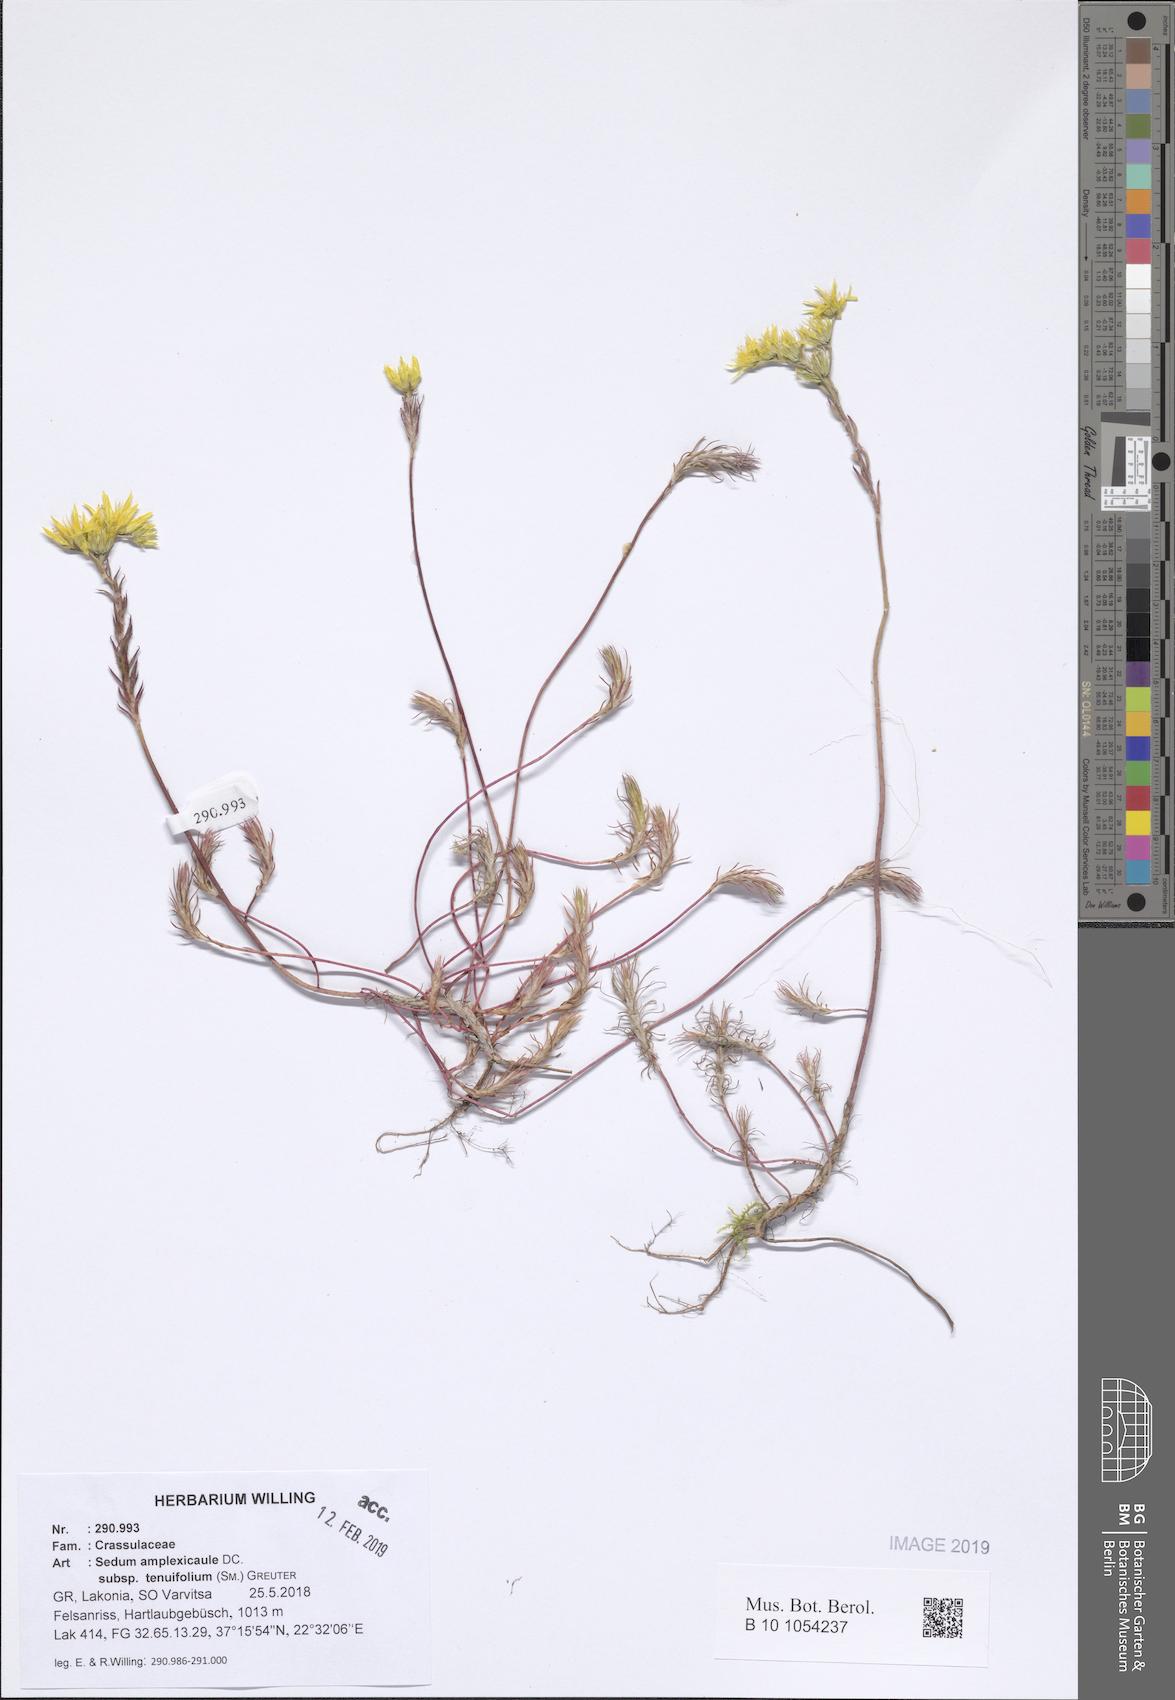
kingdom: Plantae
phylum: Tracheophyta
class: Magnoliopsida
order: Saxifragales
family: Crassulaceae
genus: Petrosedum
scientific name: Petrosedum tenuifolium
